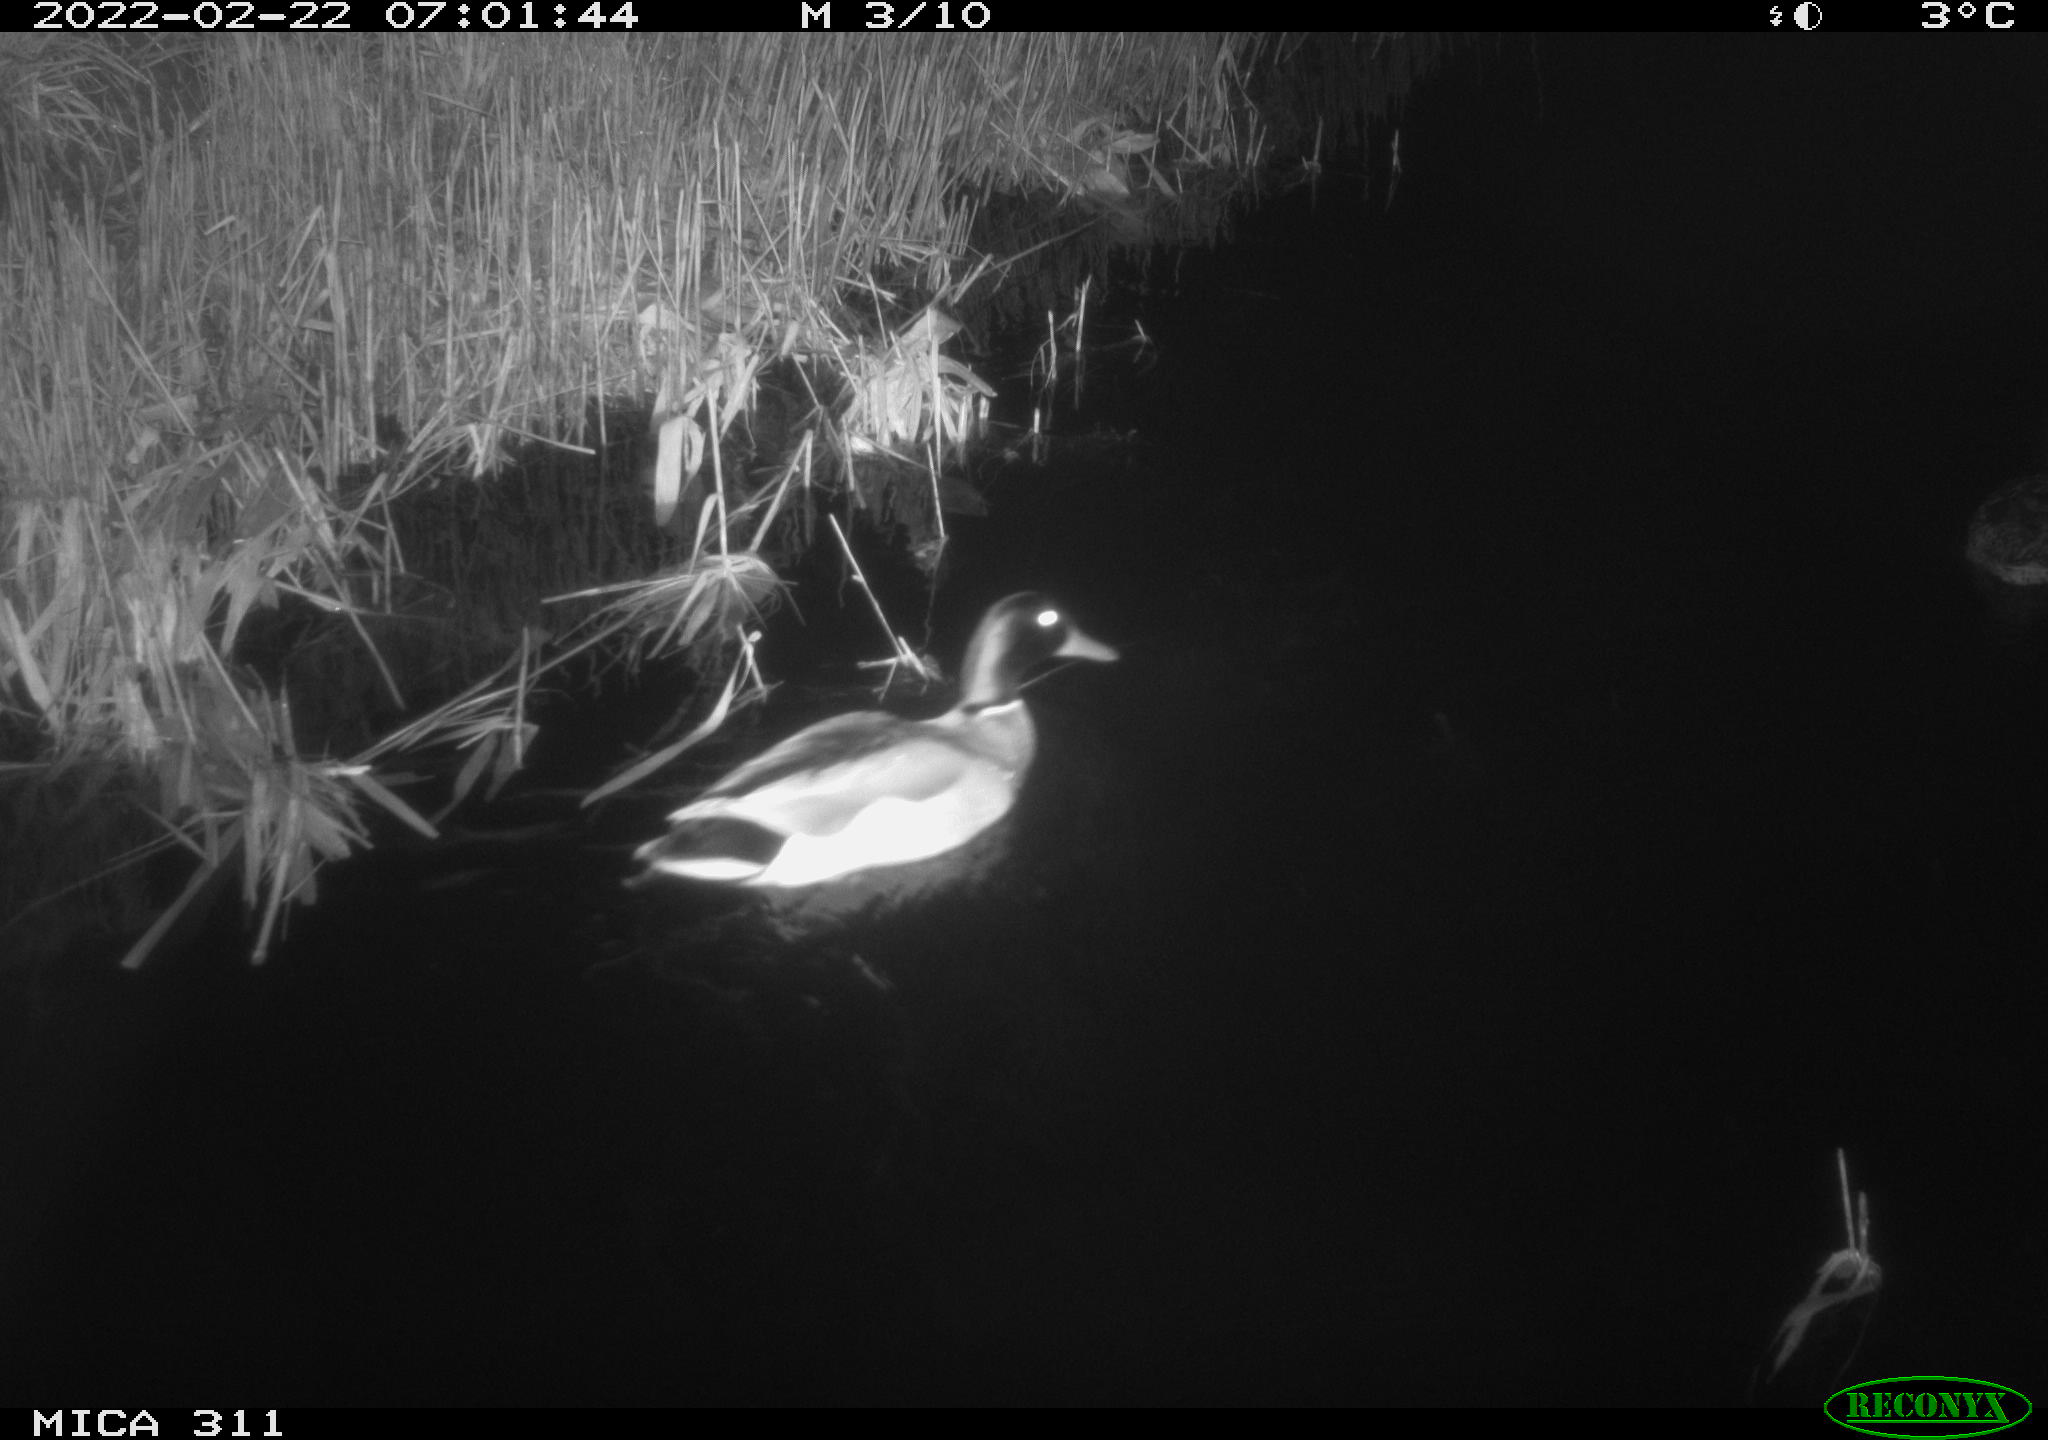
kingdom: Animalia
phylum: Chordata
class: Aves
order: Anseriformes
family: Anatidae
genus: Anas
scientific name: Anas
